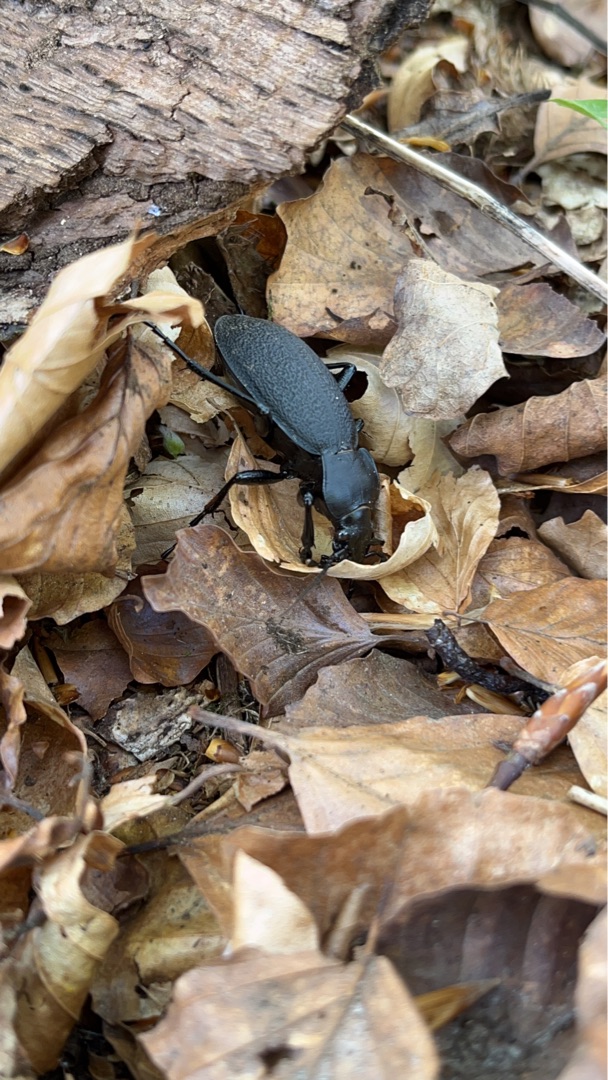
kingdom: Animalia
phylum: Arthropoda
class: Insecta
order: Coleoptera
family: Carabidae
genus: Carabus
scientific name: Carabus coriaceus
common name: Læderløber
